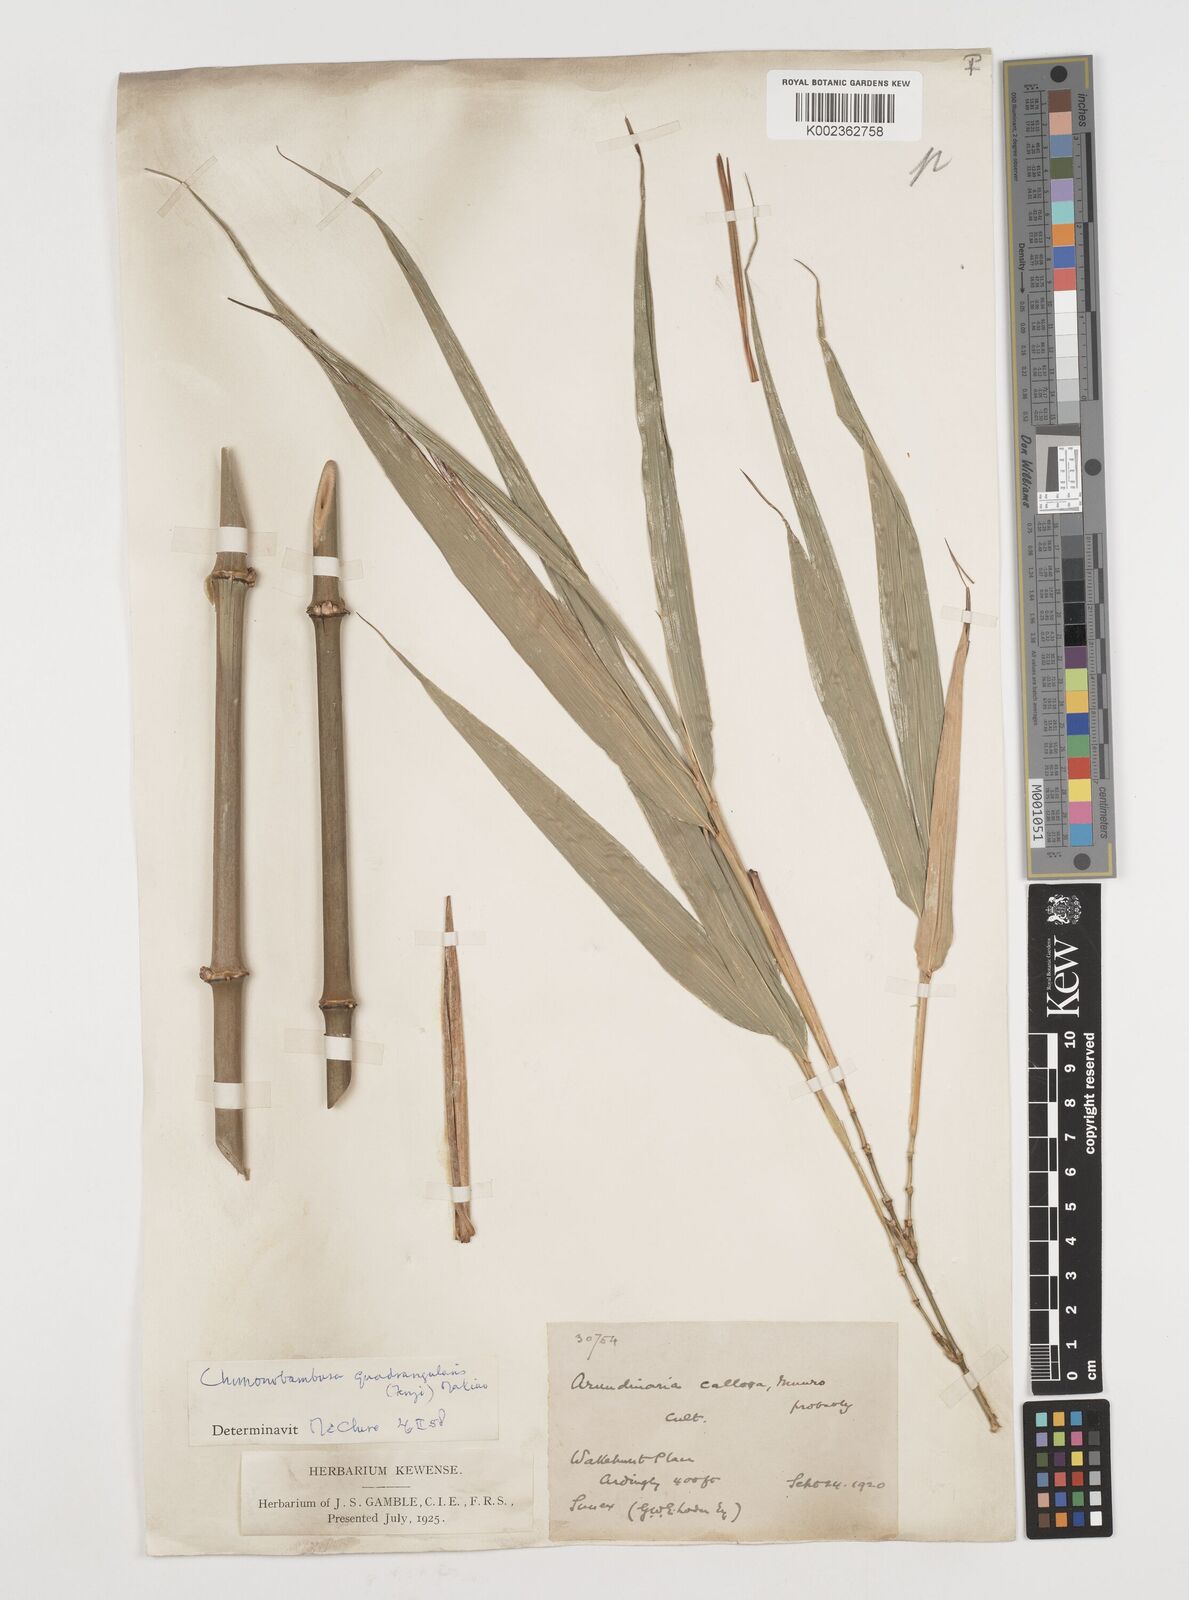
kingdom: Plantae
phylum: Tracheophyta
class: Liliopsida
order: Poales
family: Poaceae
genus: Chimonobambusa
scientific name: Chimonobambusa quadrangularis
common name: Square-stemmed bamboo
